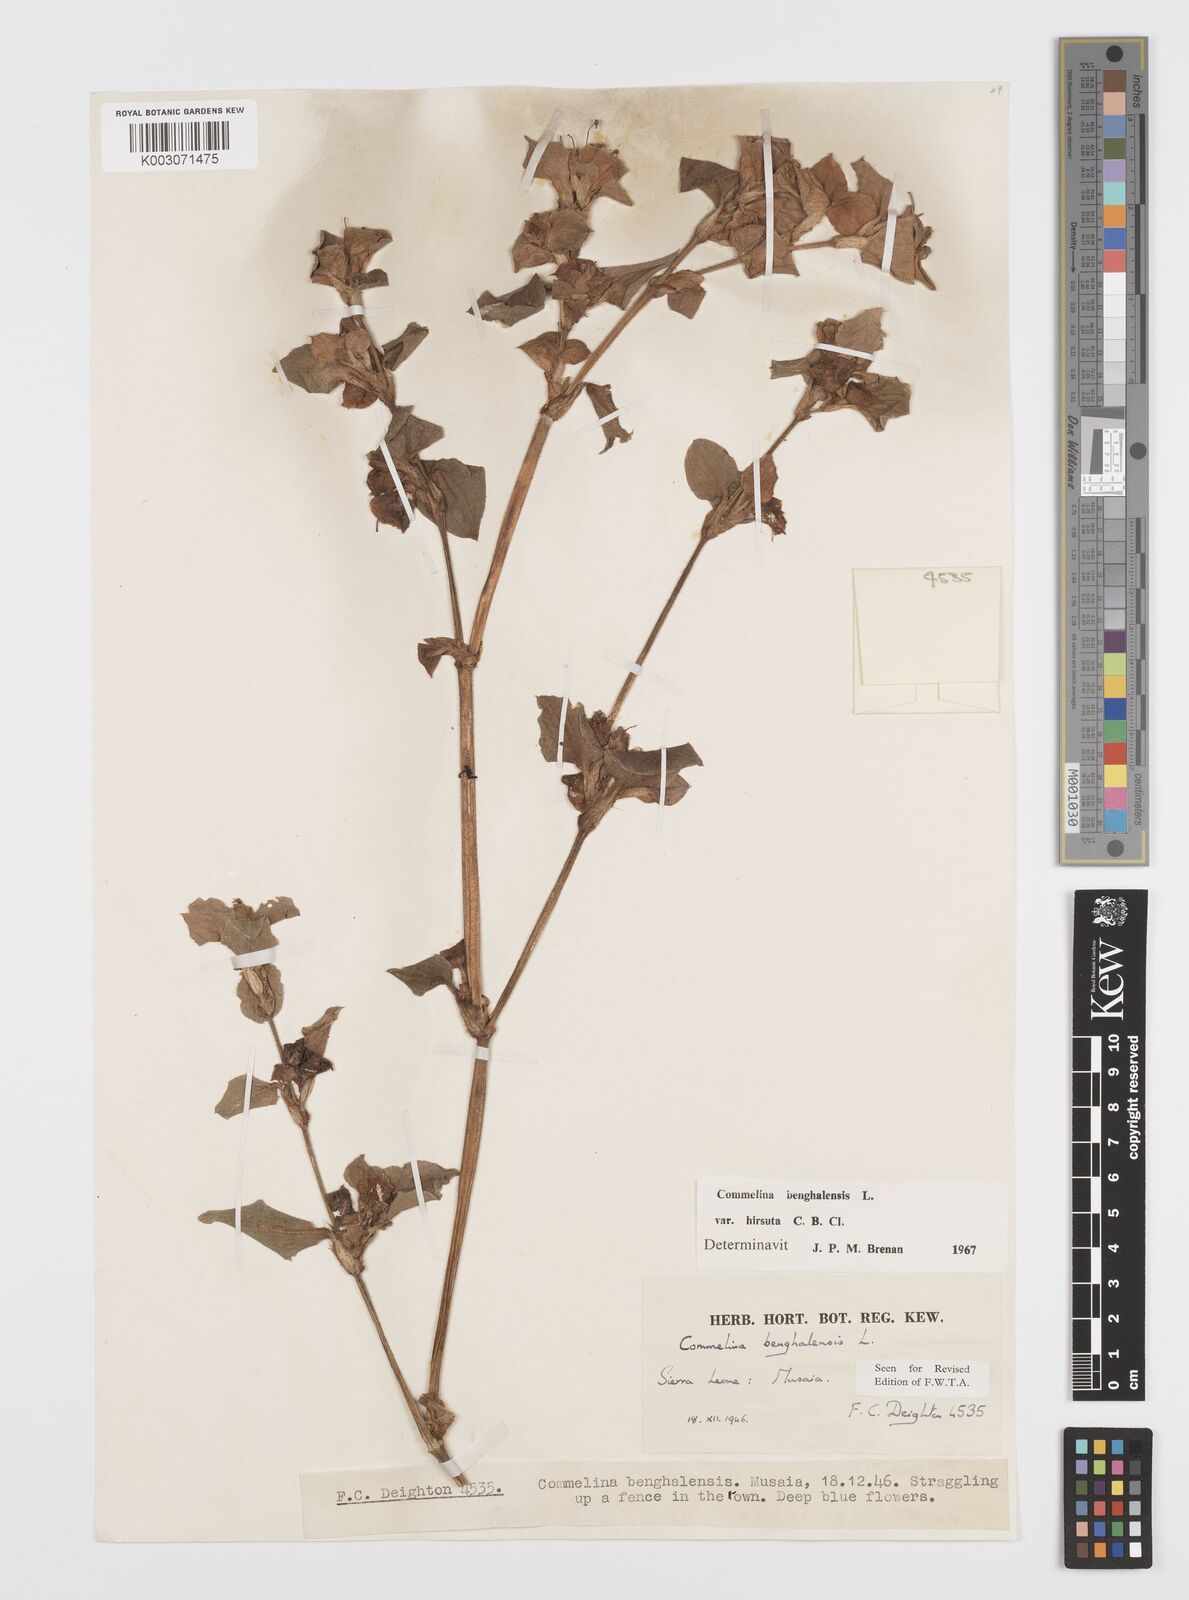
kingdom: Plantae
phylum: Tracheophyta
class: Liliopsida
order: Commelinales
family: Commelinaceae
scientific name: Commelinaceae
